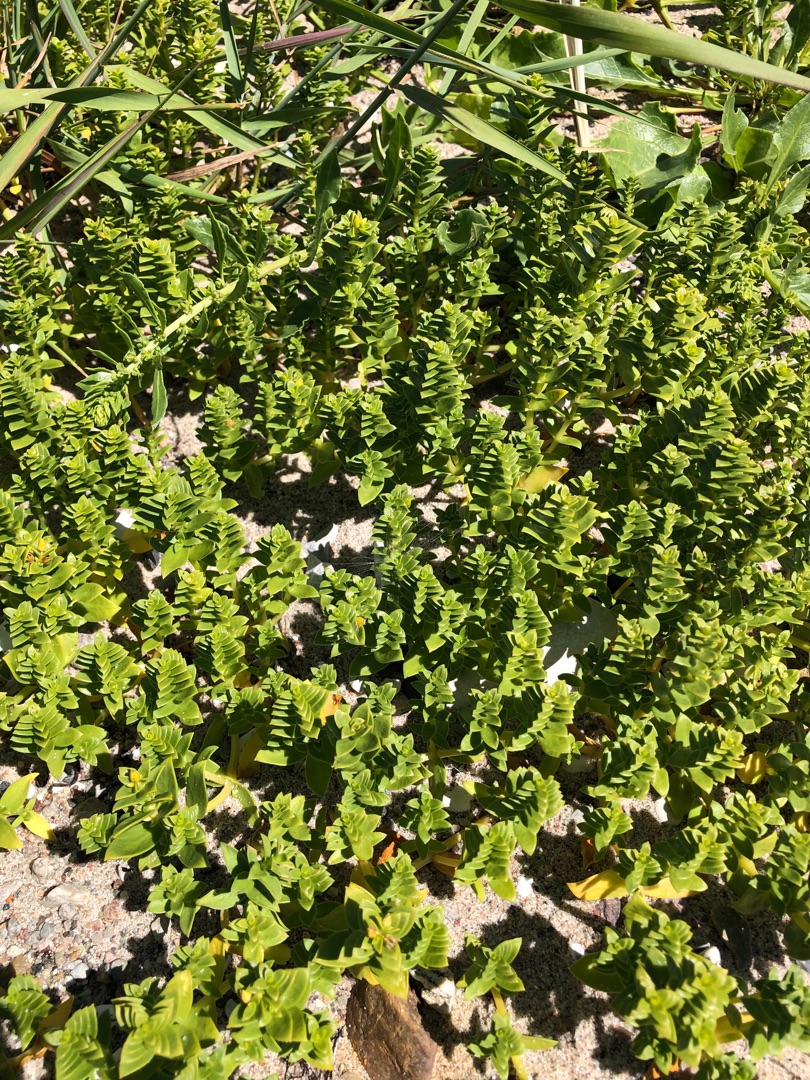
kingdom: Plantae
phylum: Tracheophyta
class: Magnoliopsida
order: Caryophyllales
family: Caryophyllaceae
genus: Honckenya
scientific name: Honckenya peploides
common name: Strandarve
